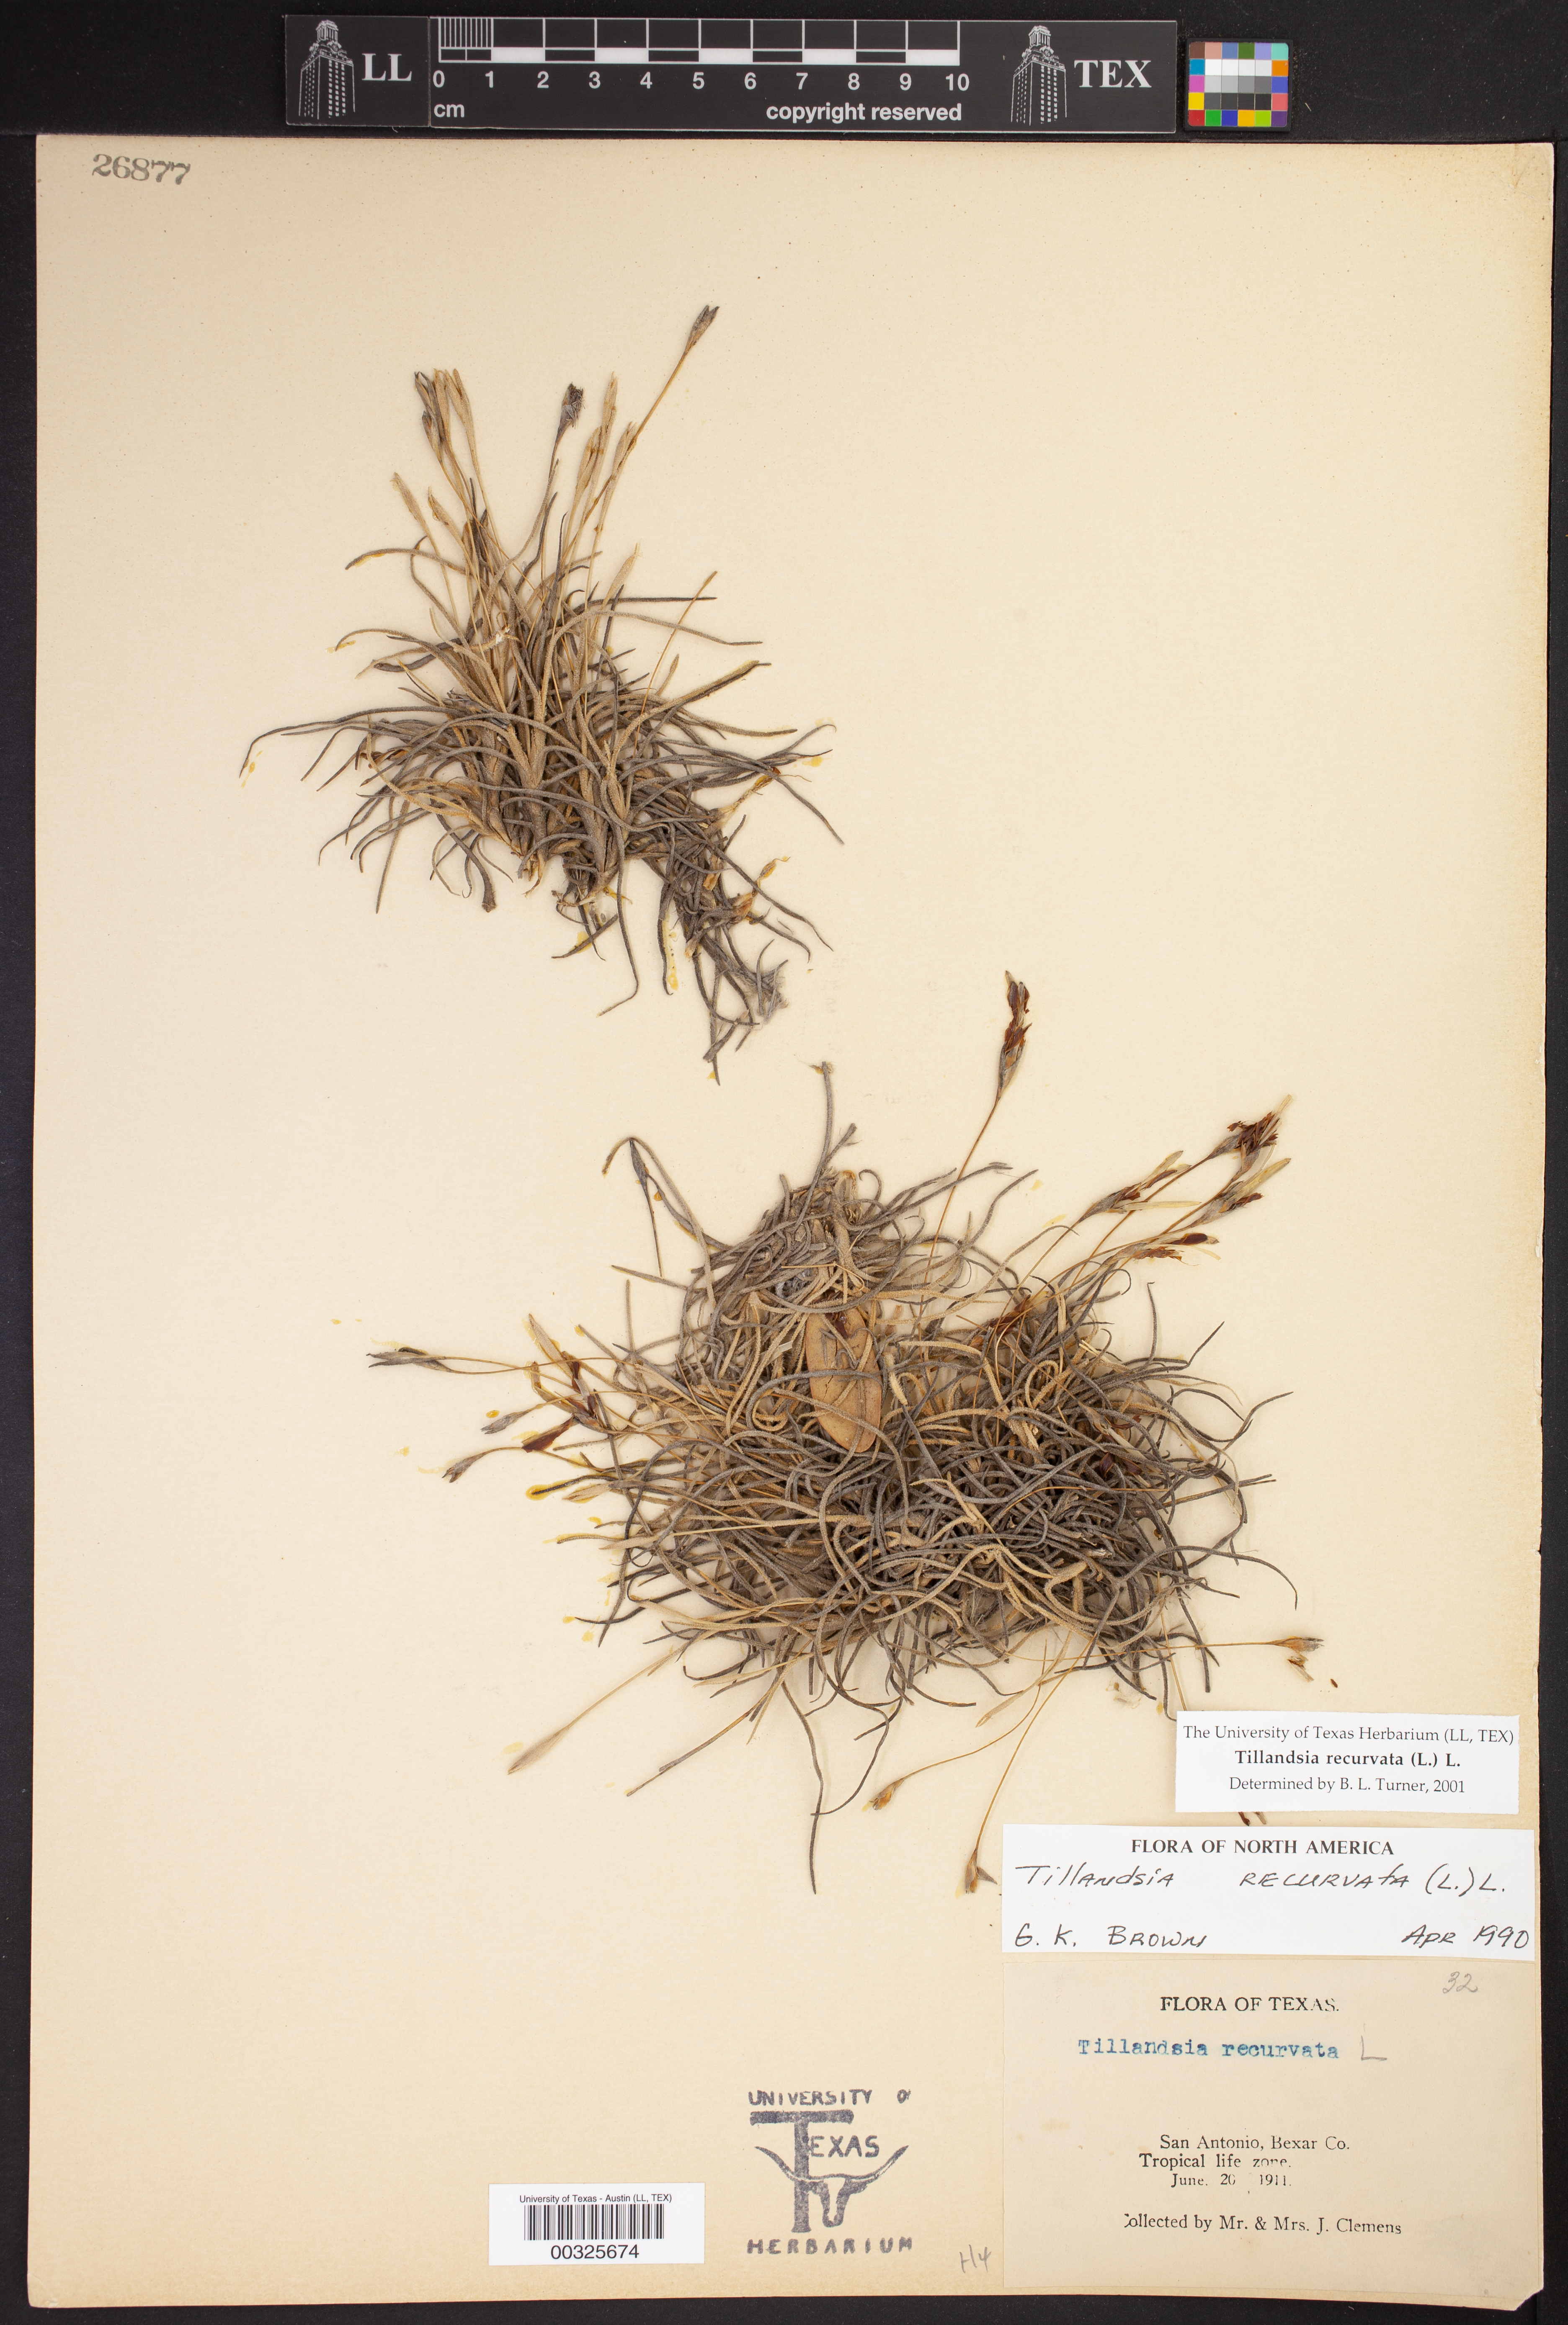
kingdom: Plantae
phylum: Tracheophyta
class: Liliopsida
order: Poales
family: Bromeliaceae
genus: Tillandsia
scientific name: Tillandsia recurvata
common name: Small ballmoss
